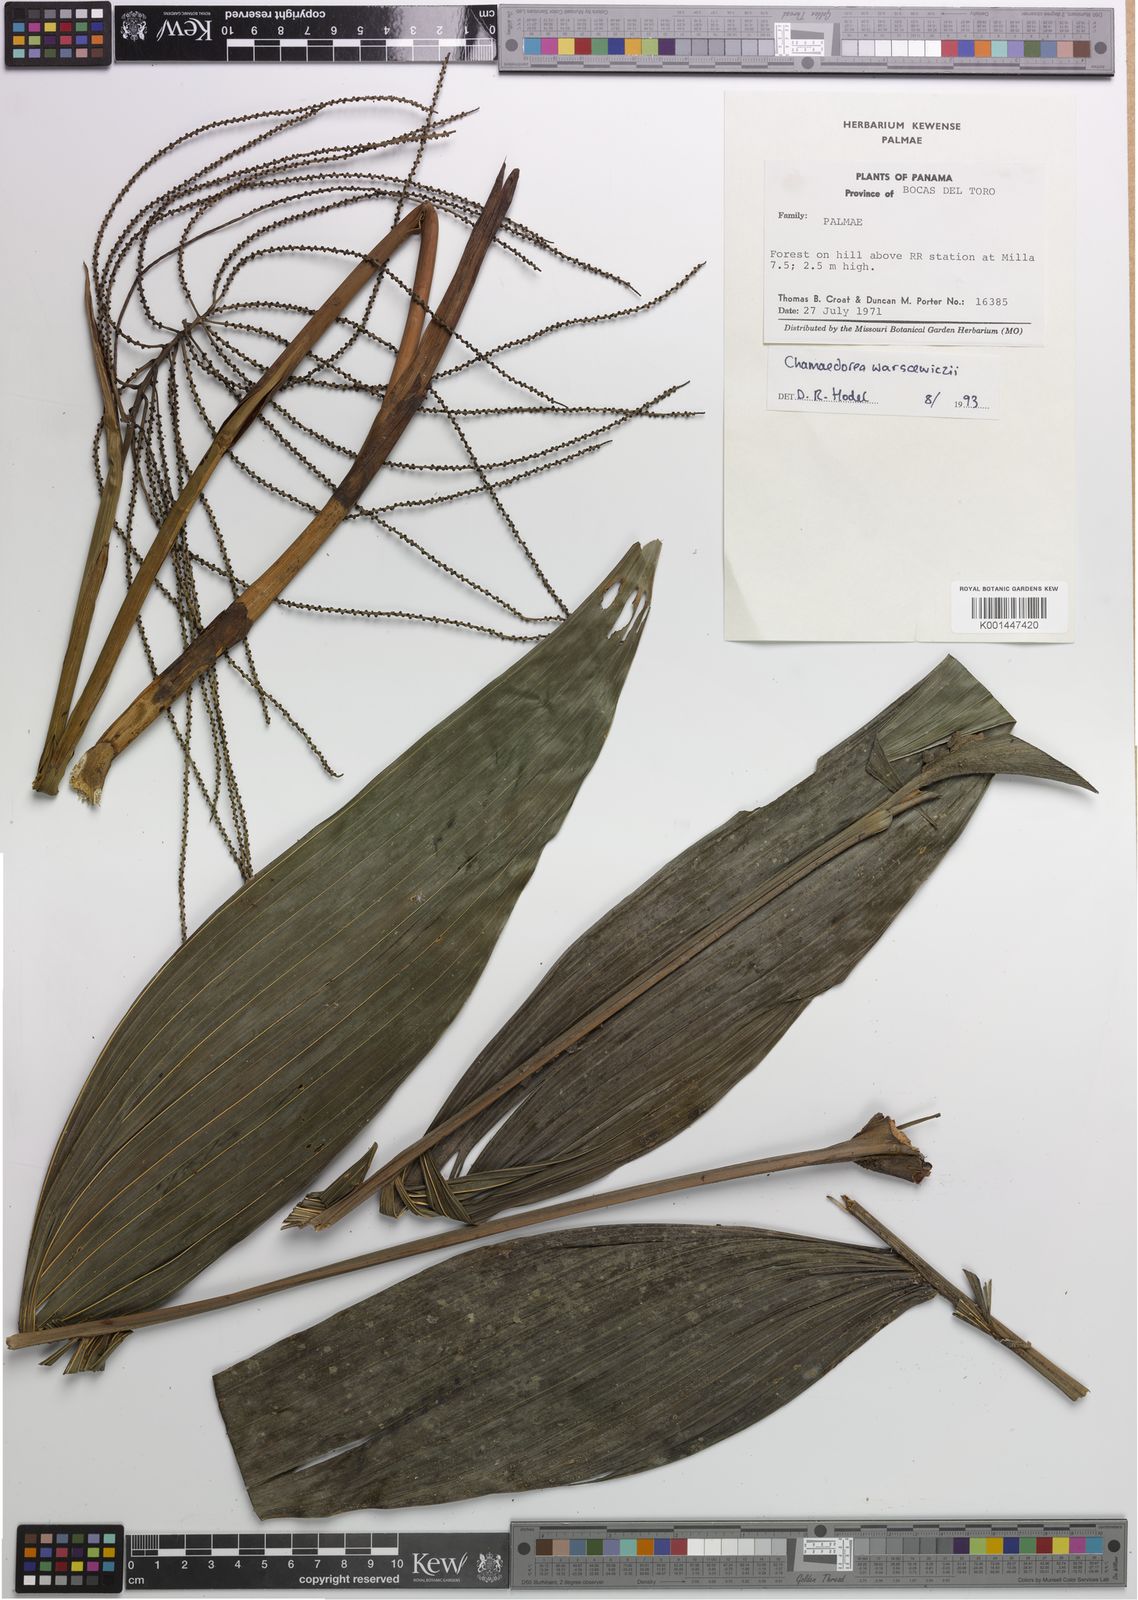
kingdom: Plantae
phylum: Tracheophyta
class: Liliopsida
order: Arecales
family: Arecaceae
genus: Chamaedorea
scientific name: Chamaedorea warscewiczii
